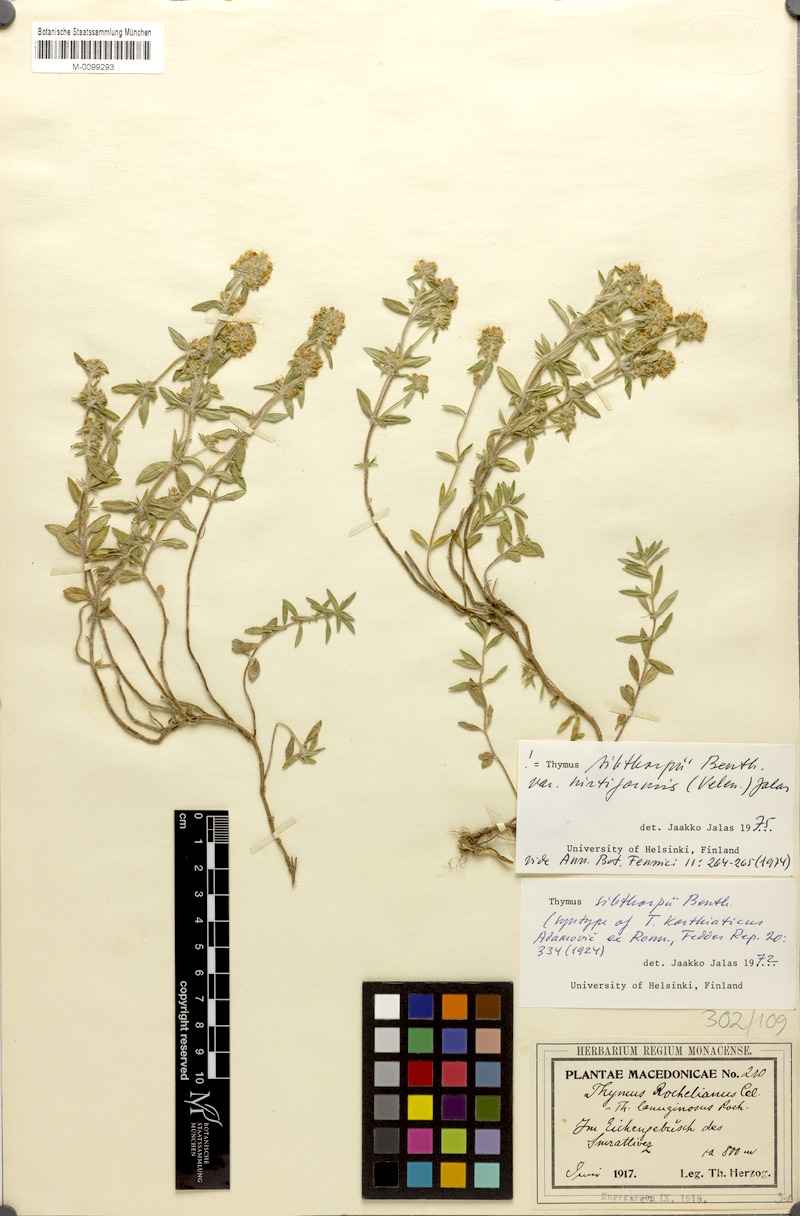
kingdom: Plantae
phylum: Tracheophyta
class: Magnoliopsida
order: Lamiales
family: Lamiaceae
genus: Thymus
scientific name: Thymus sibthorpii
